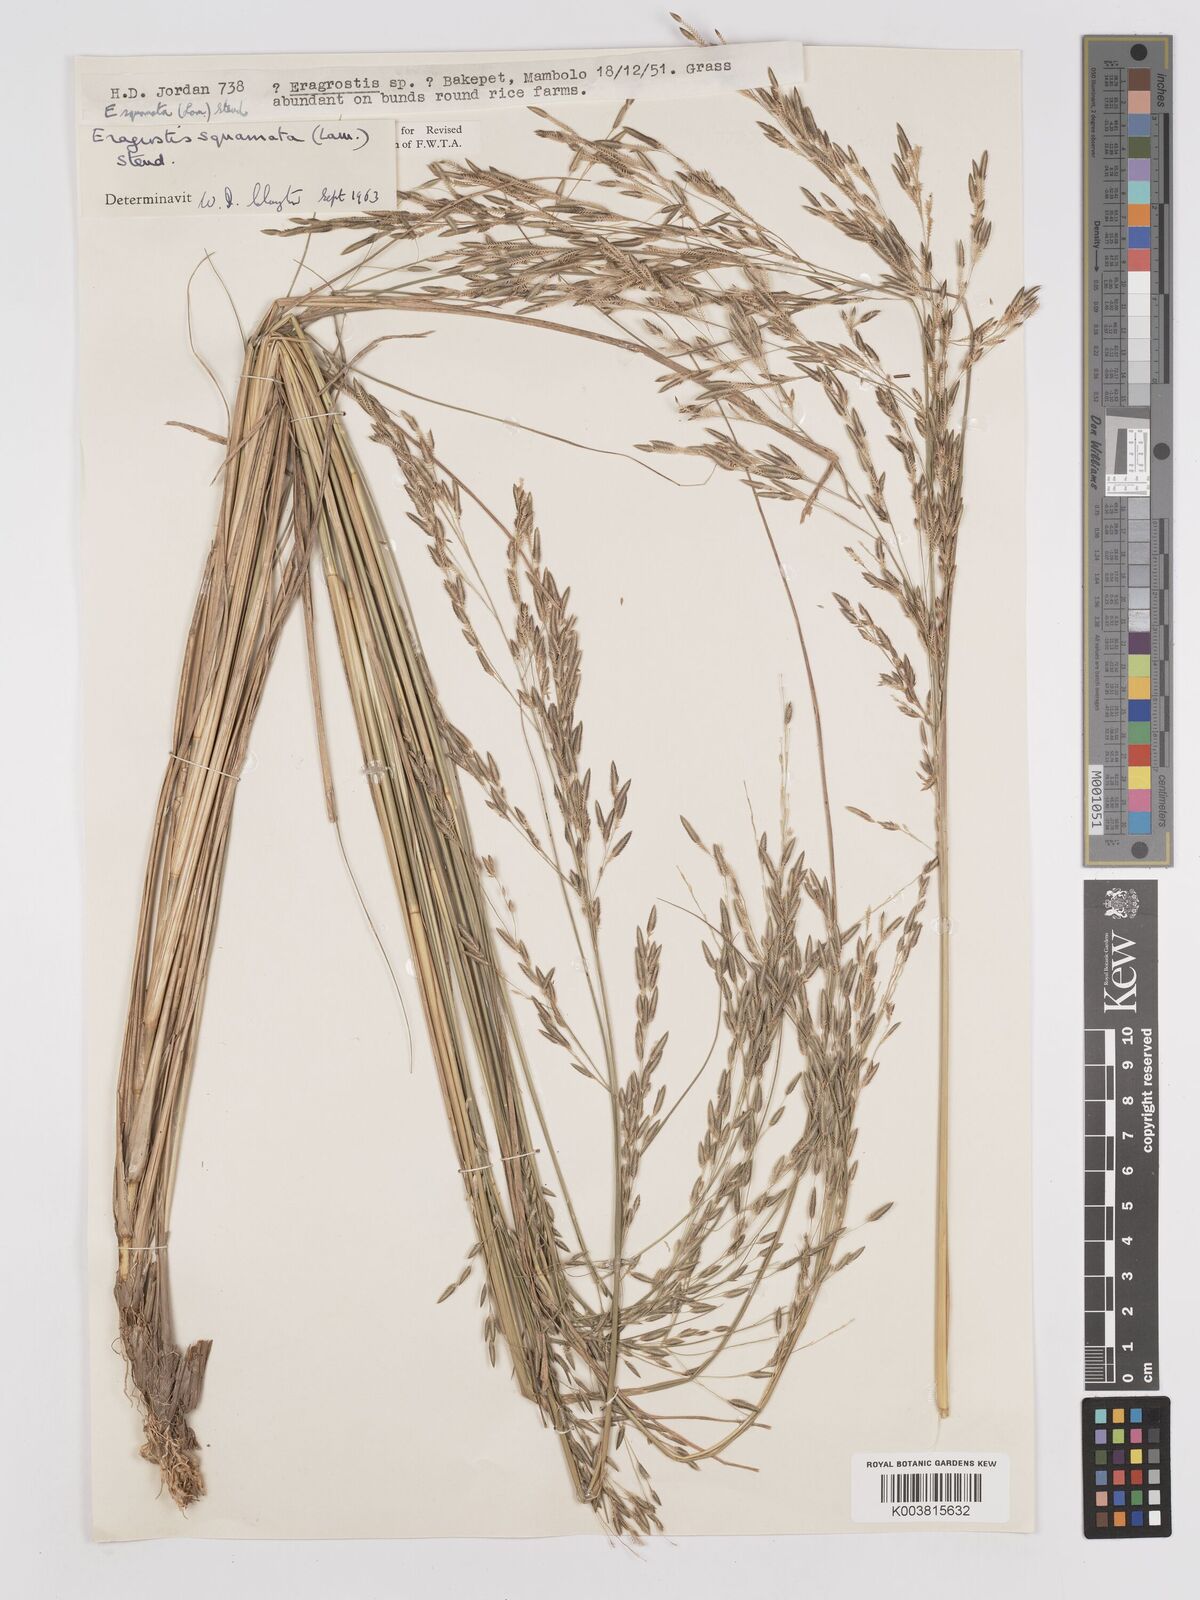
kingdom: Plantae
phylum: Tracheophyta
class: Liliopsida
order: Poales
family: Poaceae
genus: Eragrostis
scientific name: Eragrostis squamata
